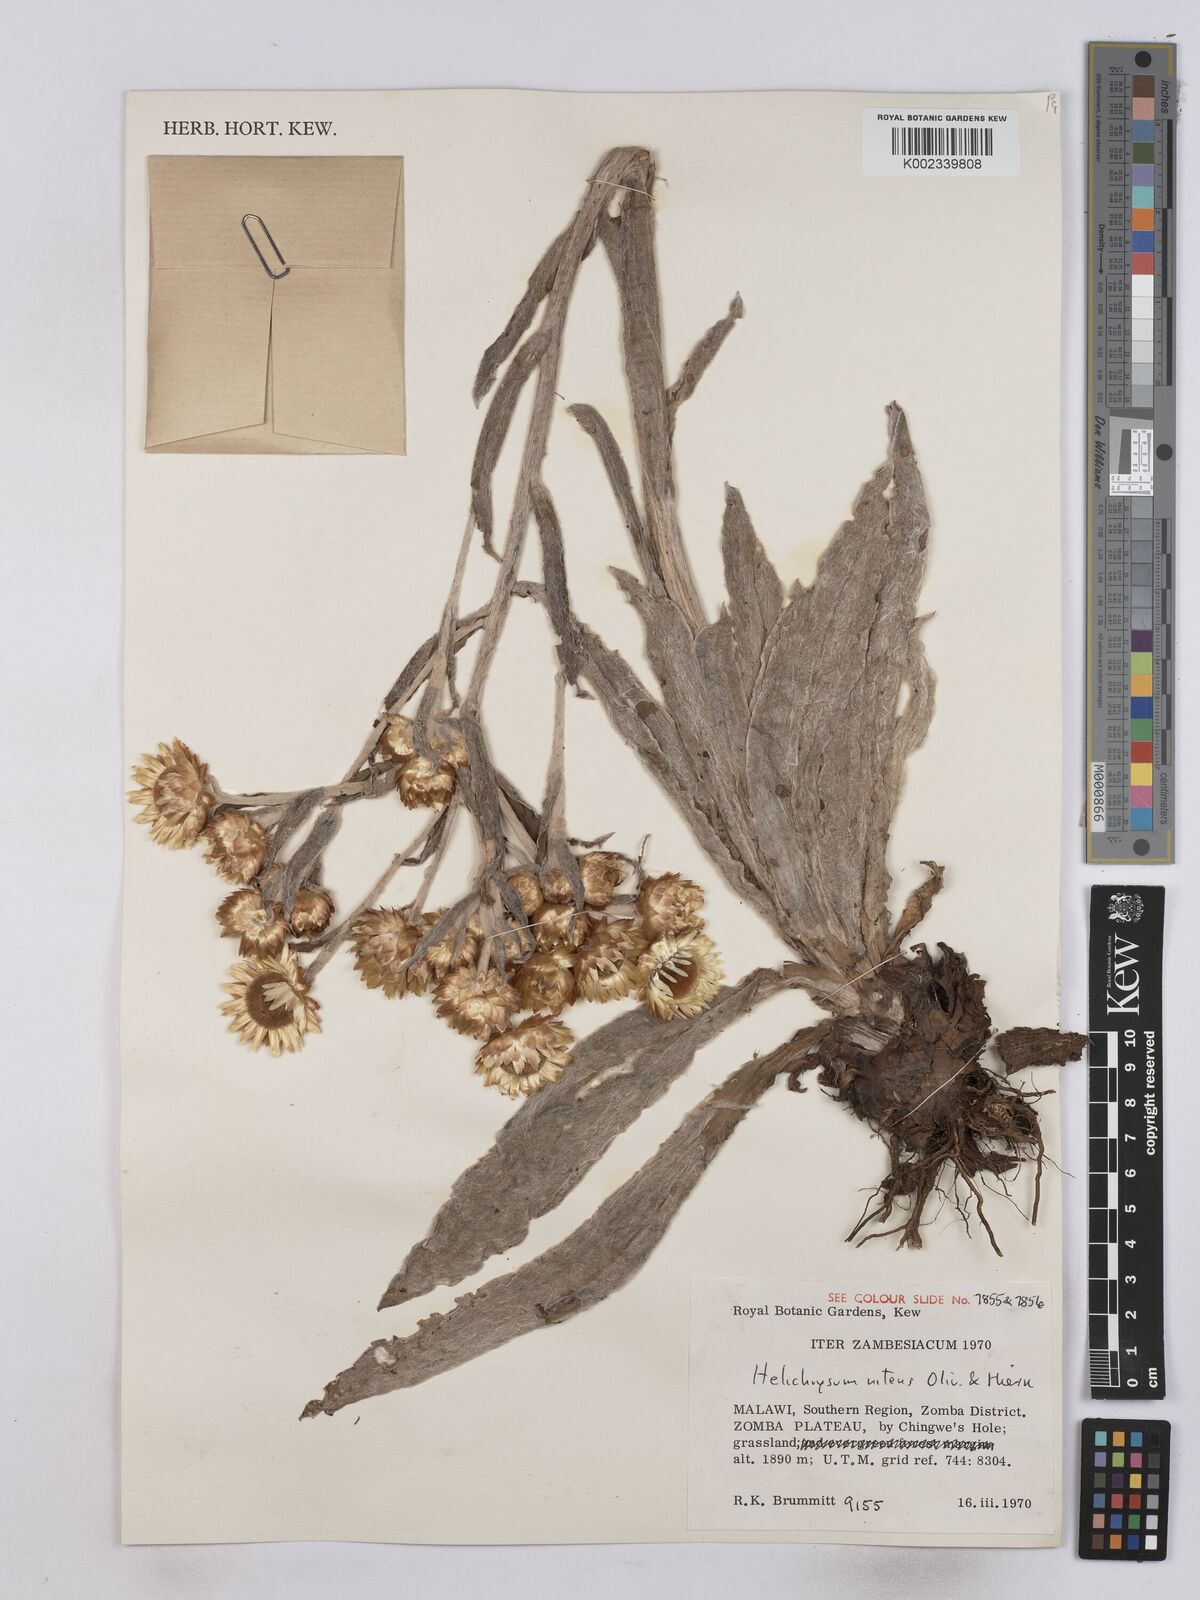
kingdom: Plantae
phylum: Tracheophyta
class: Magnoliopsida
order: Asterales
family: Asteraceae
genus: Helichrysum
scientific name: Helichrysum nitens
